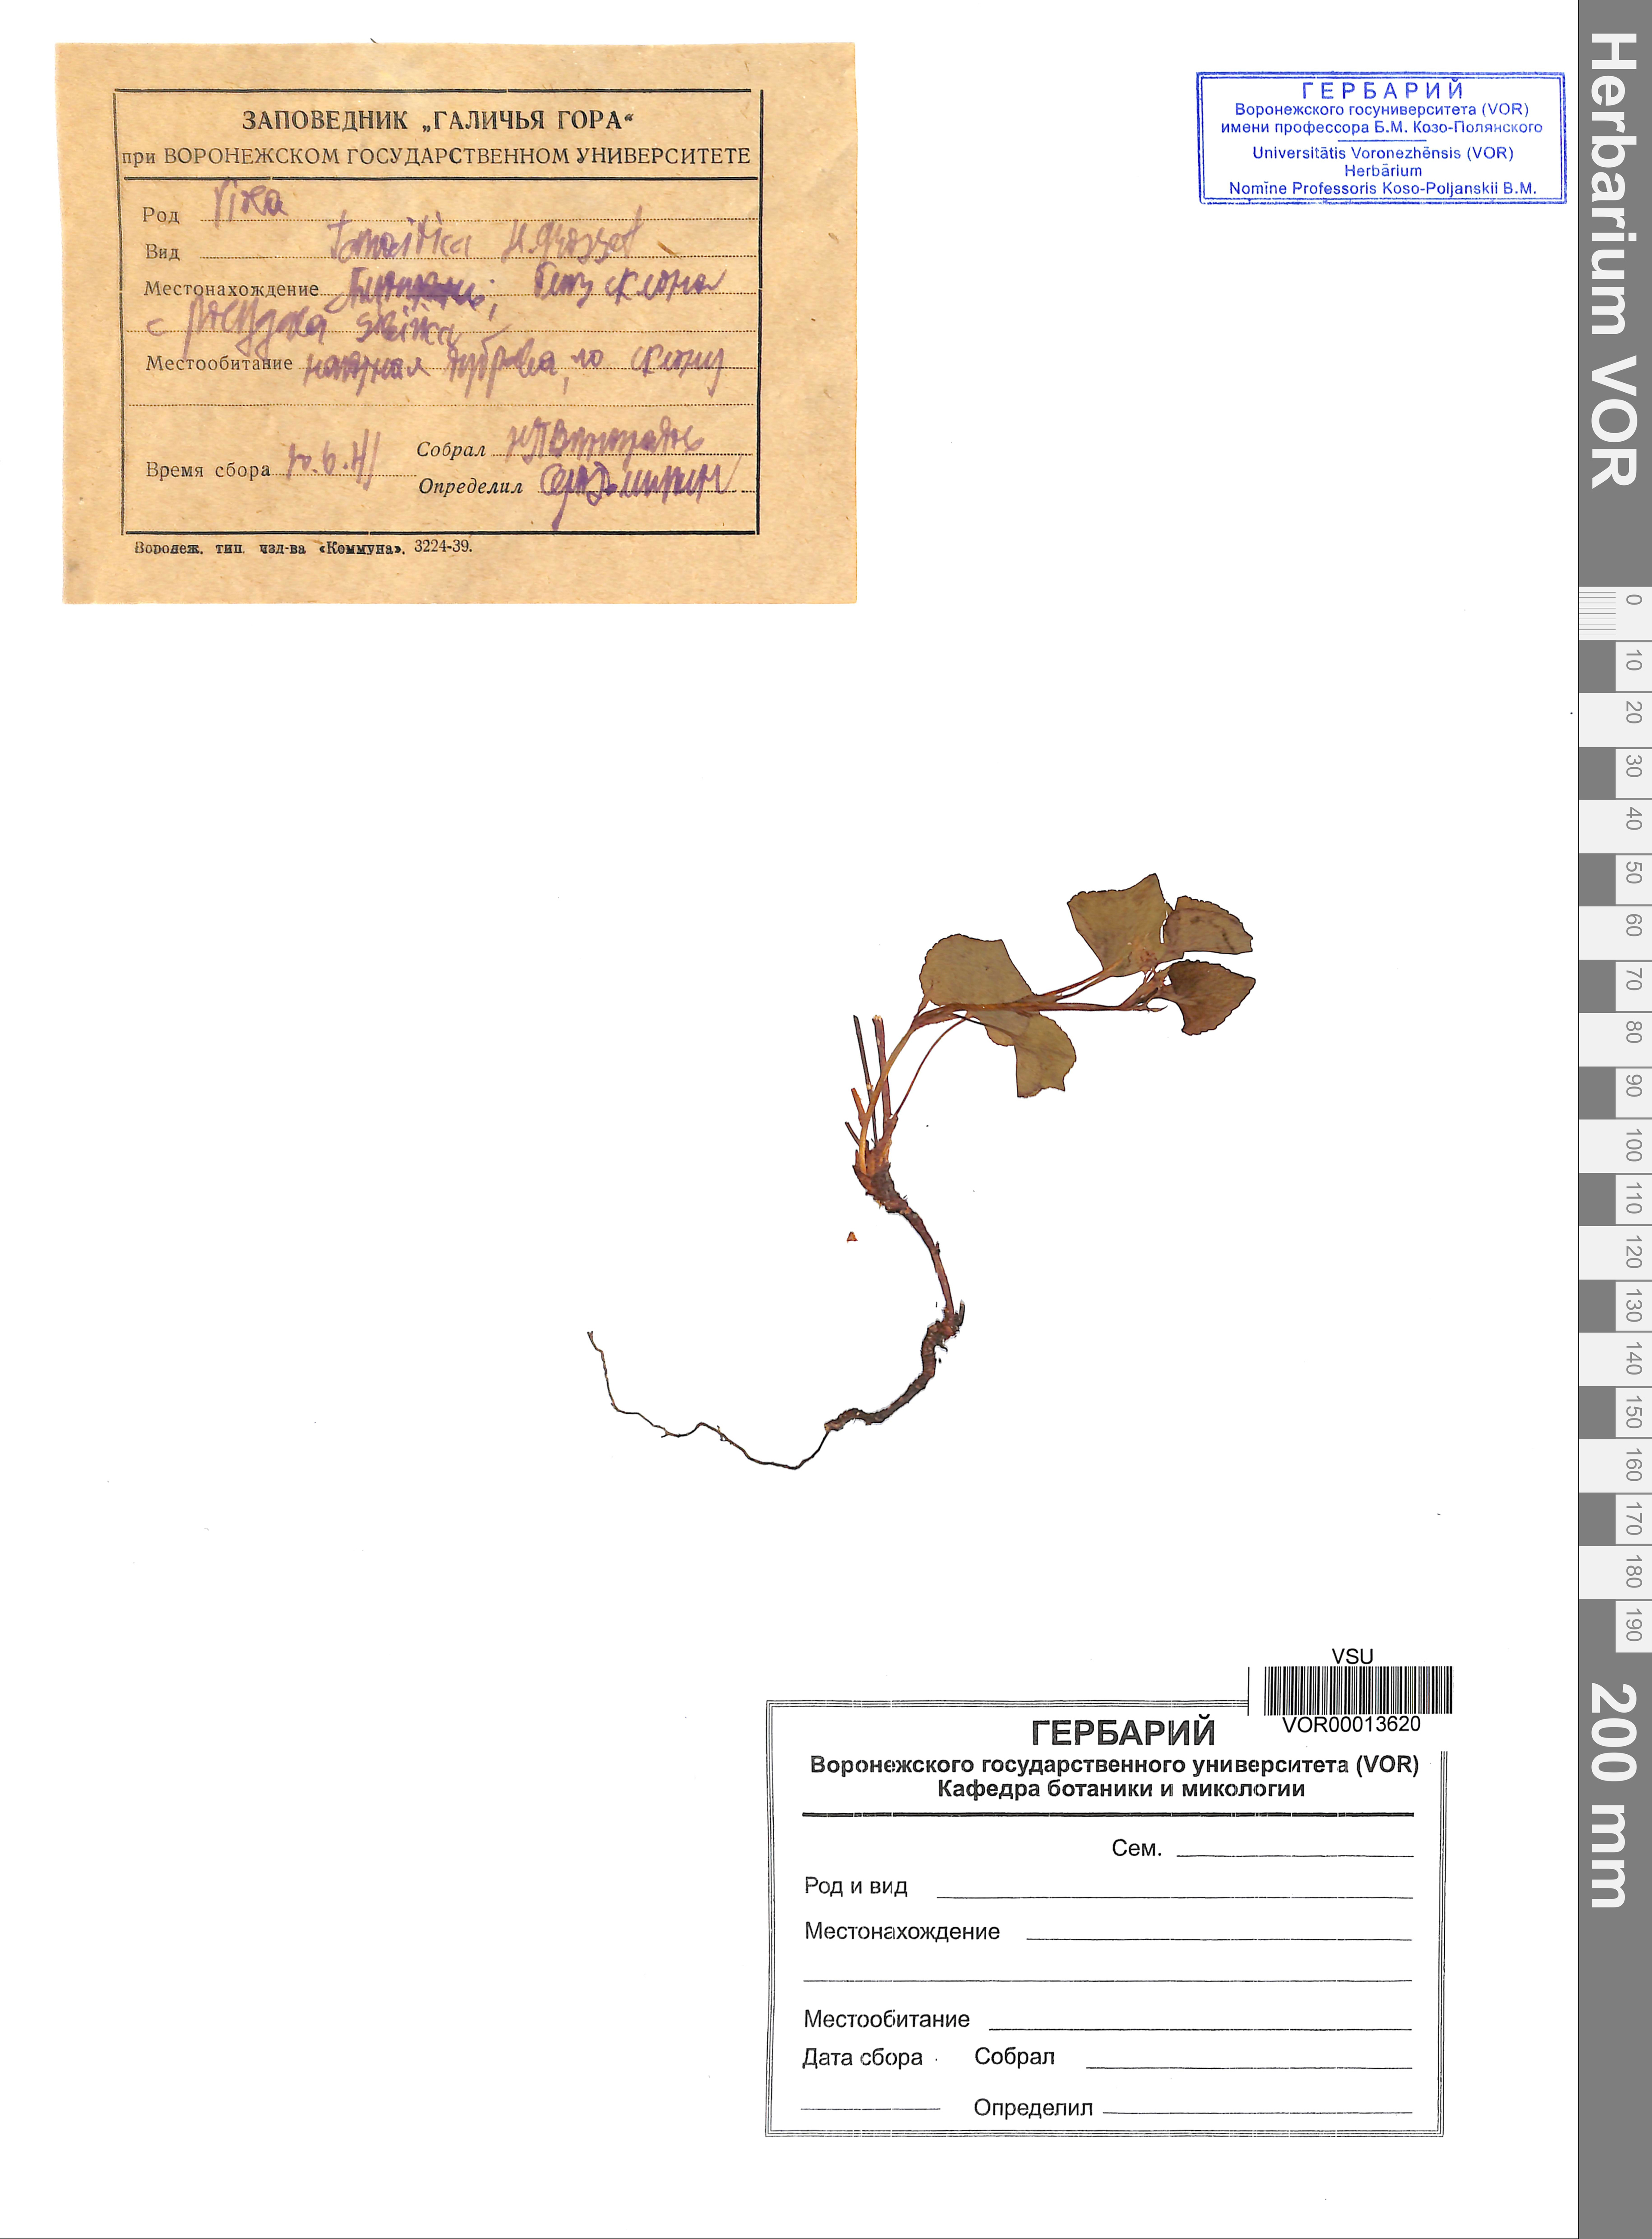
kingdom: Plantae
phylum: Tracheophyta
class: Magnoliopsida
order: Malpighiales
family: Violaceae
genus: Viola
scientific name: Viola tanaitica
